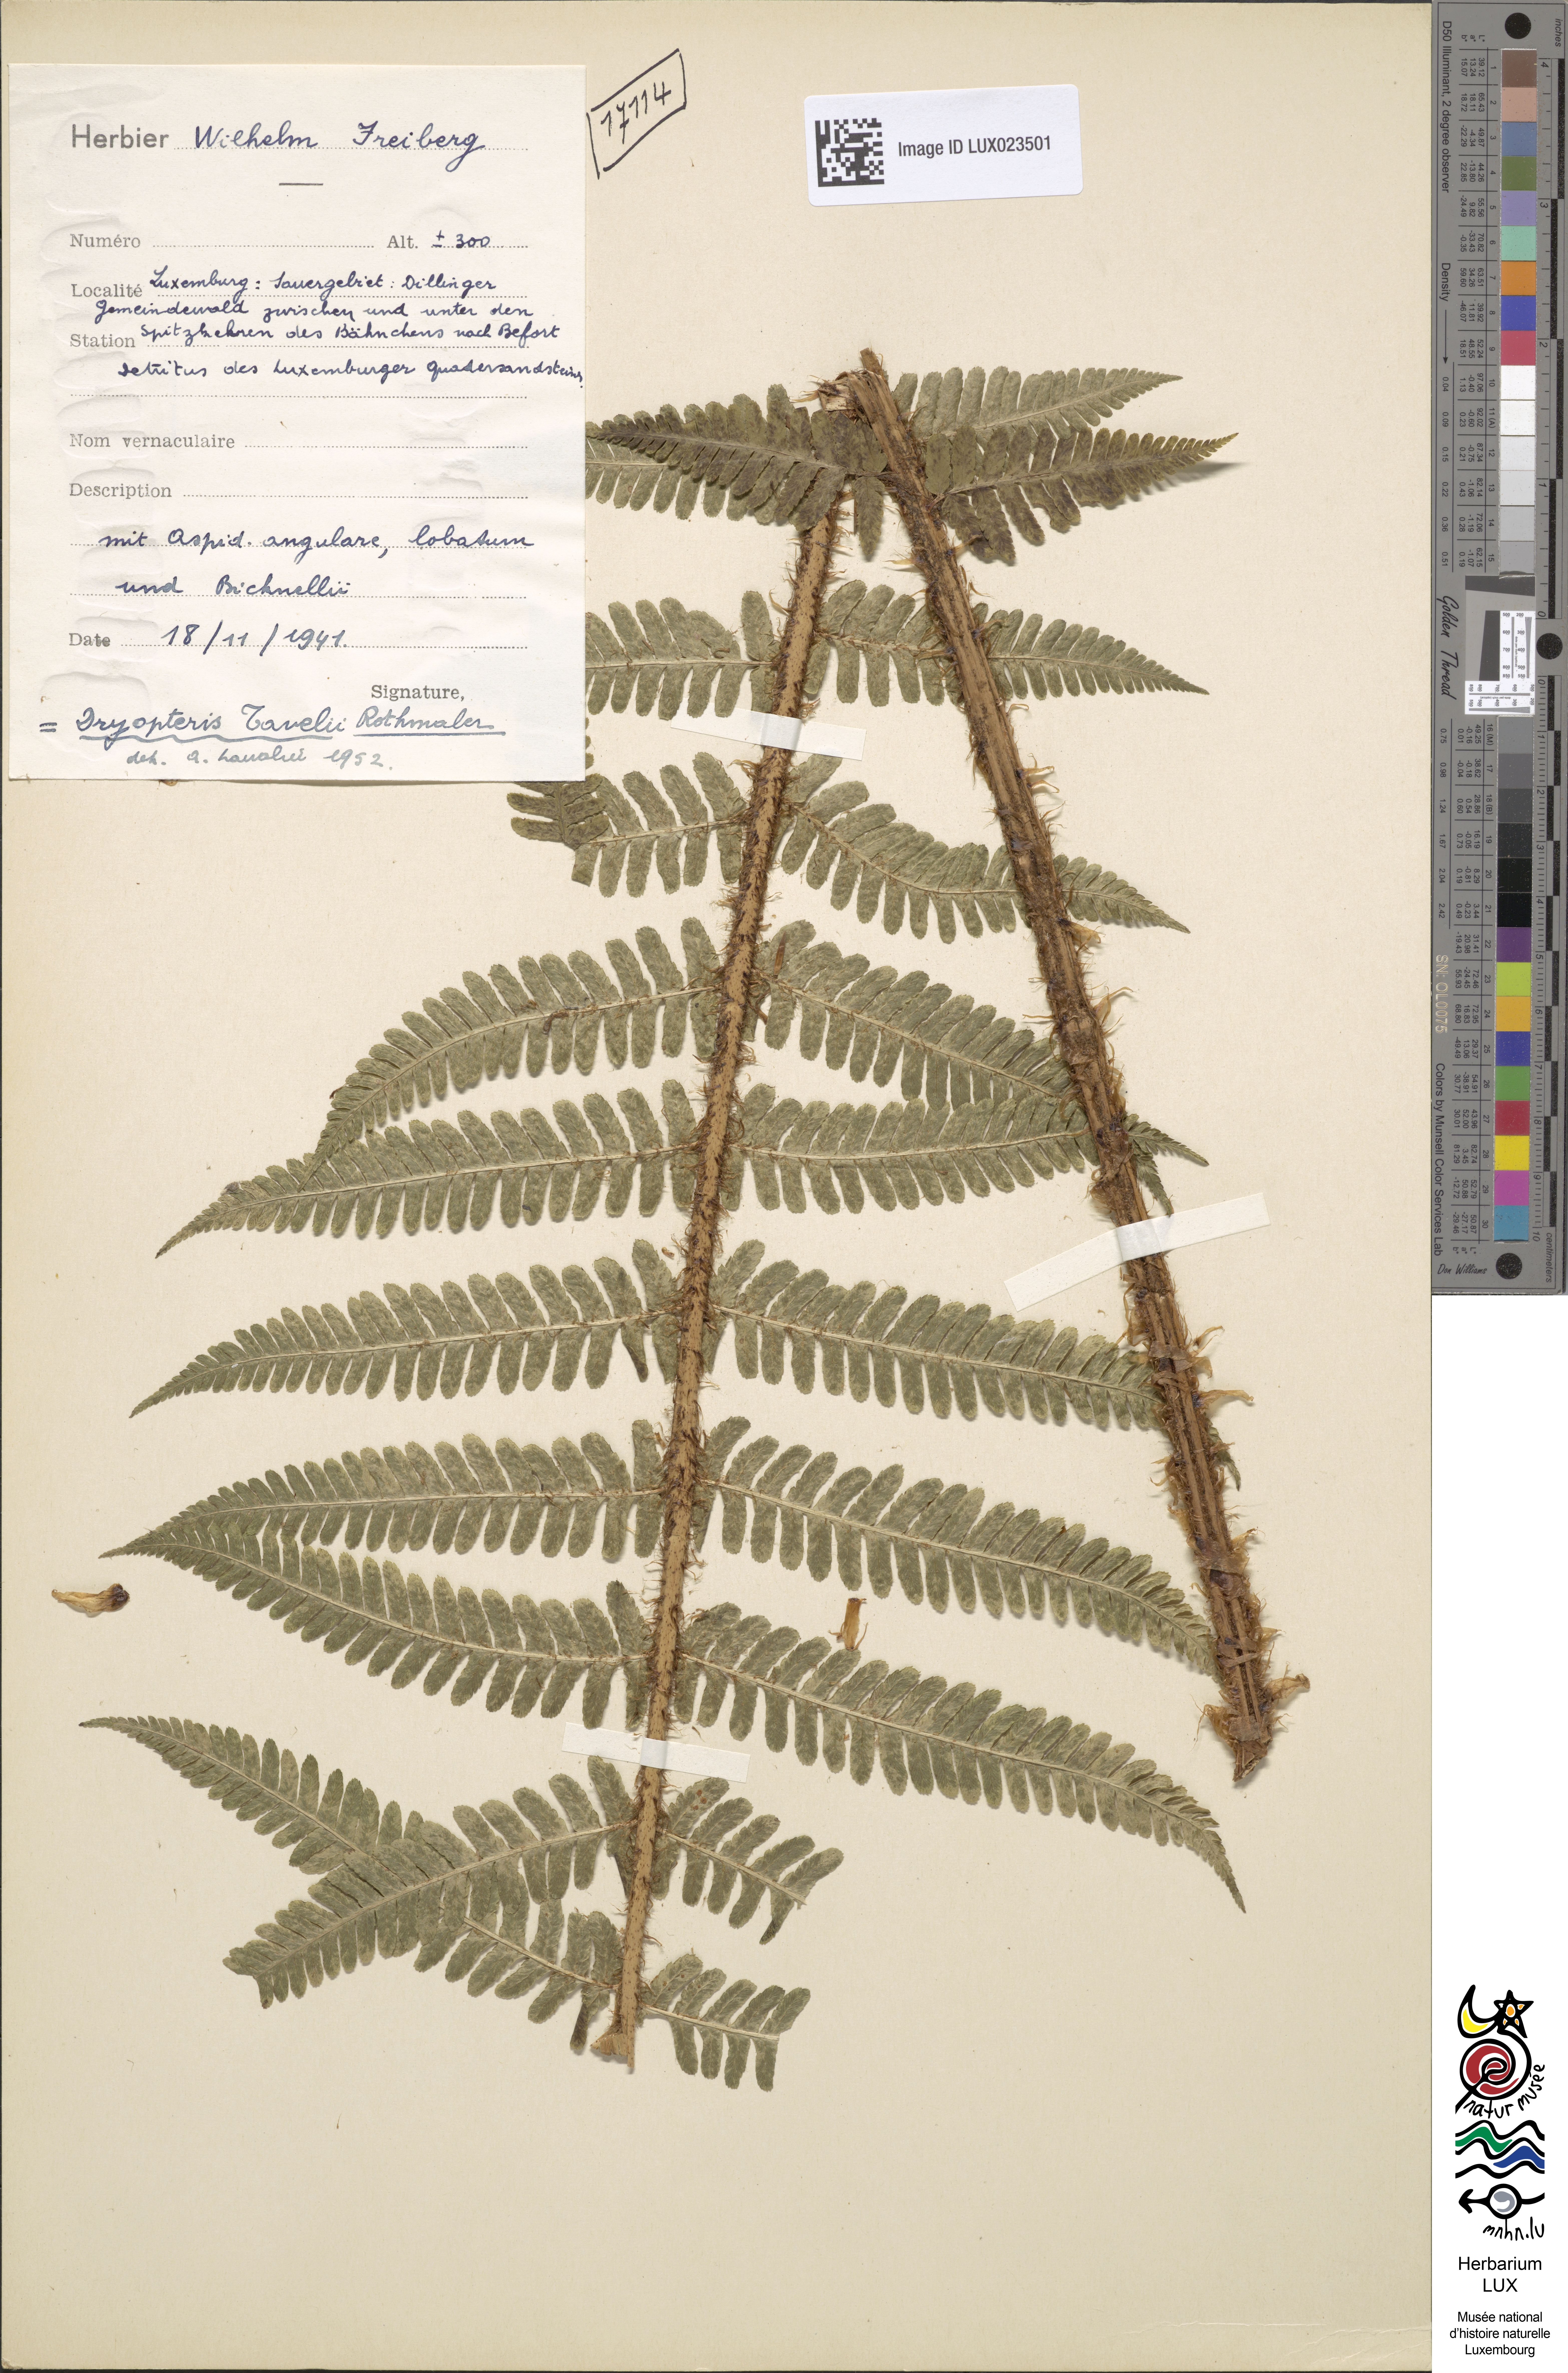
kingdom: Plantae
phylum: Tracheophyta
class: Polypodiopsida
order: Polypodiales
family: Dryopteridaceae
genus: Dryopteris
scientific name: Dryopteris borreri
